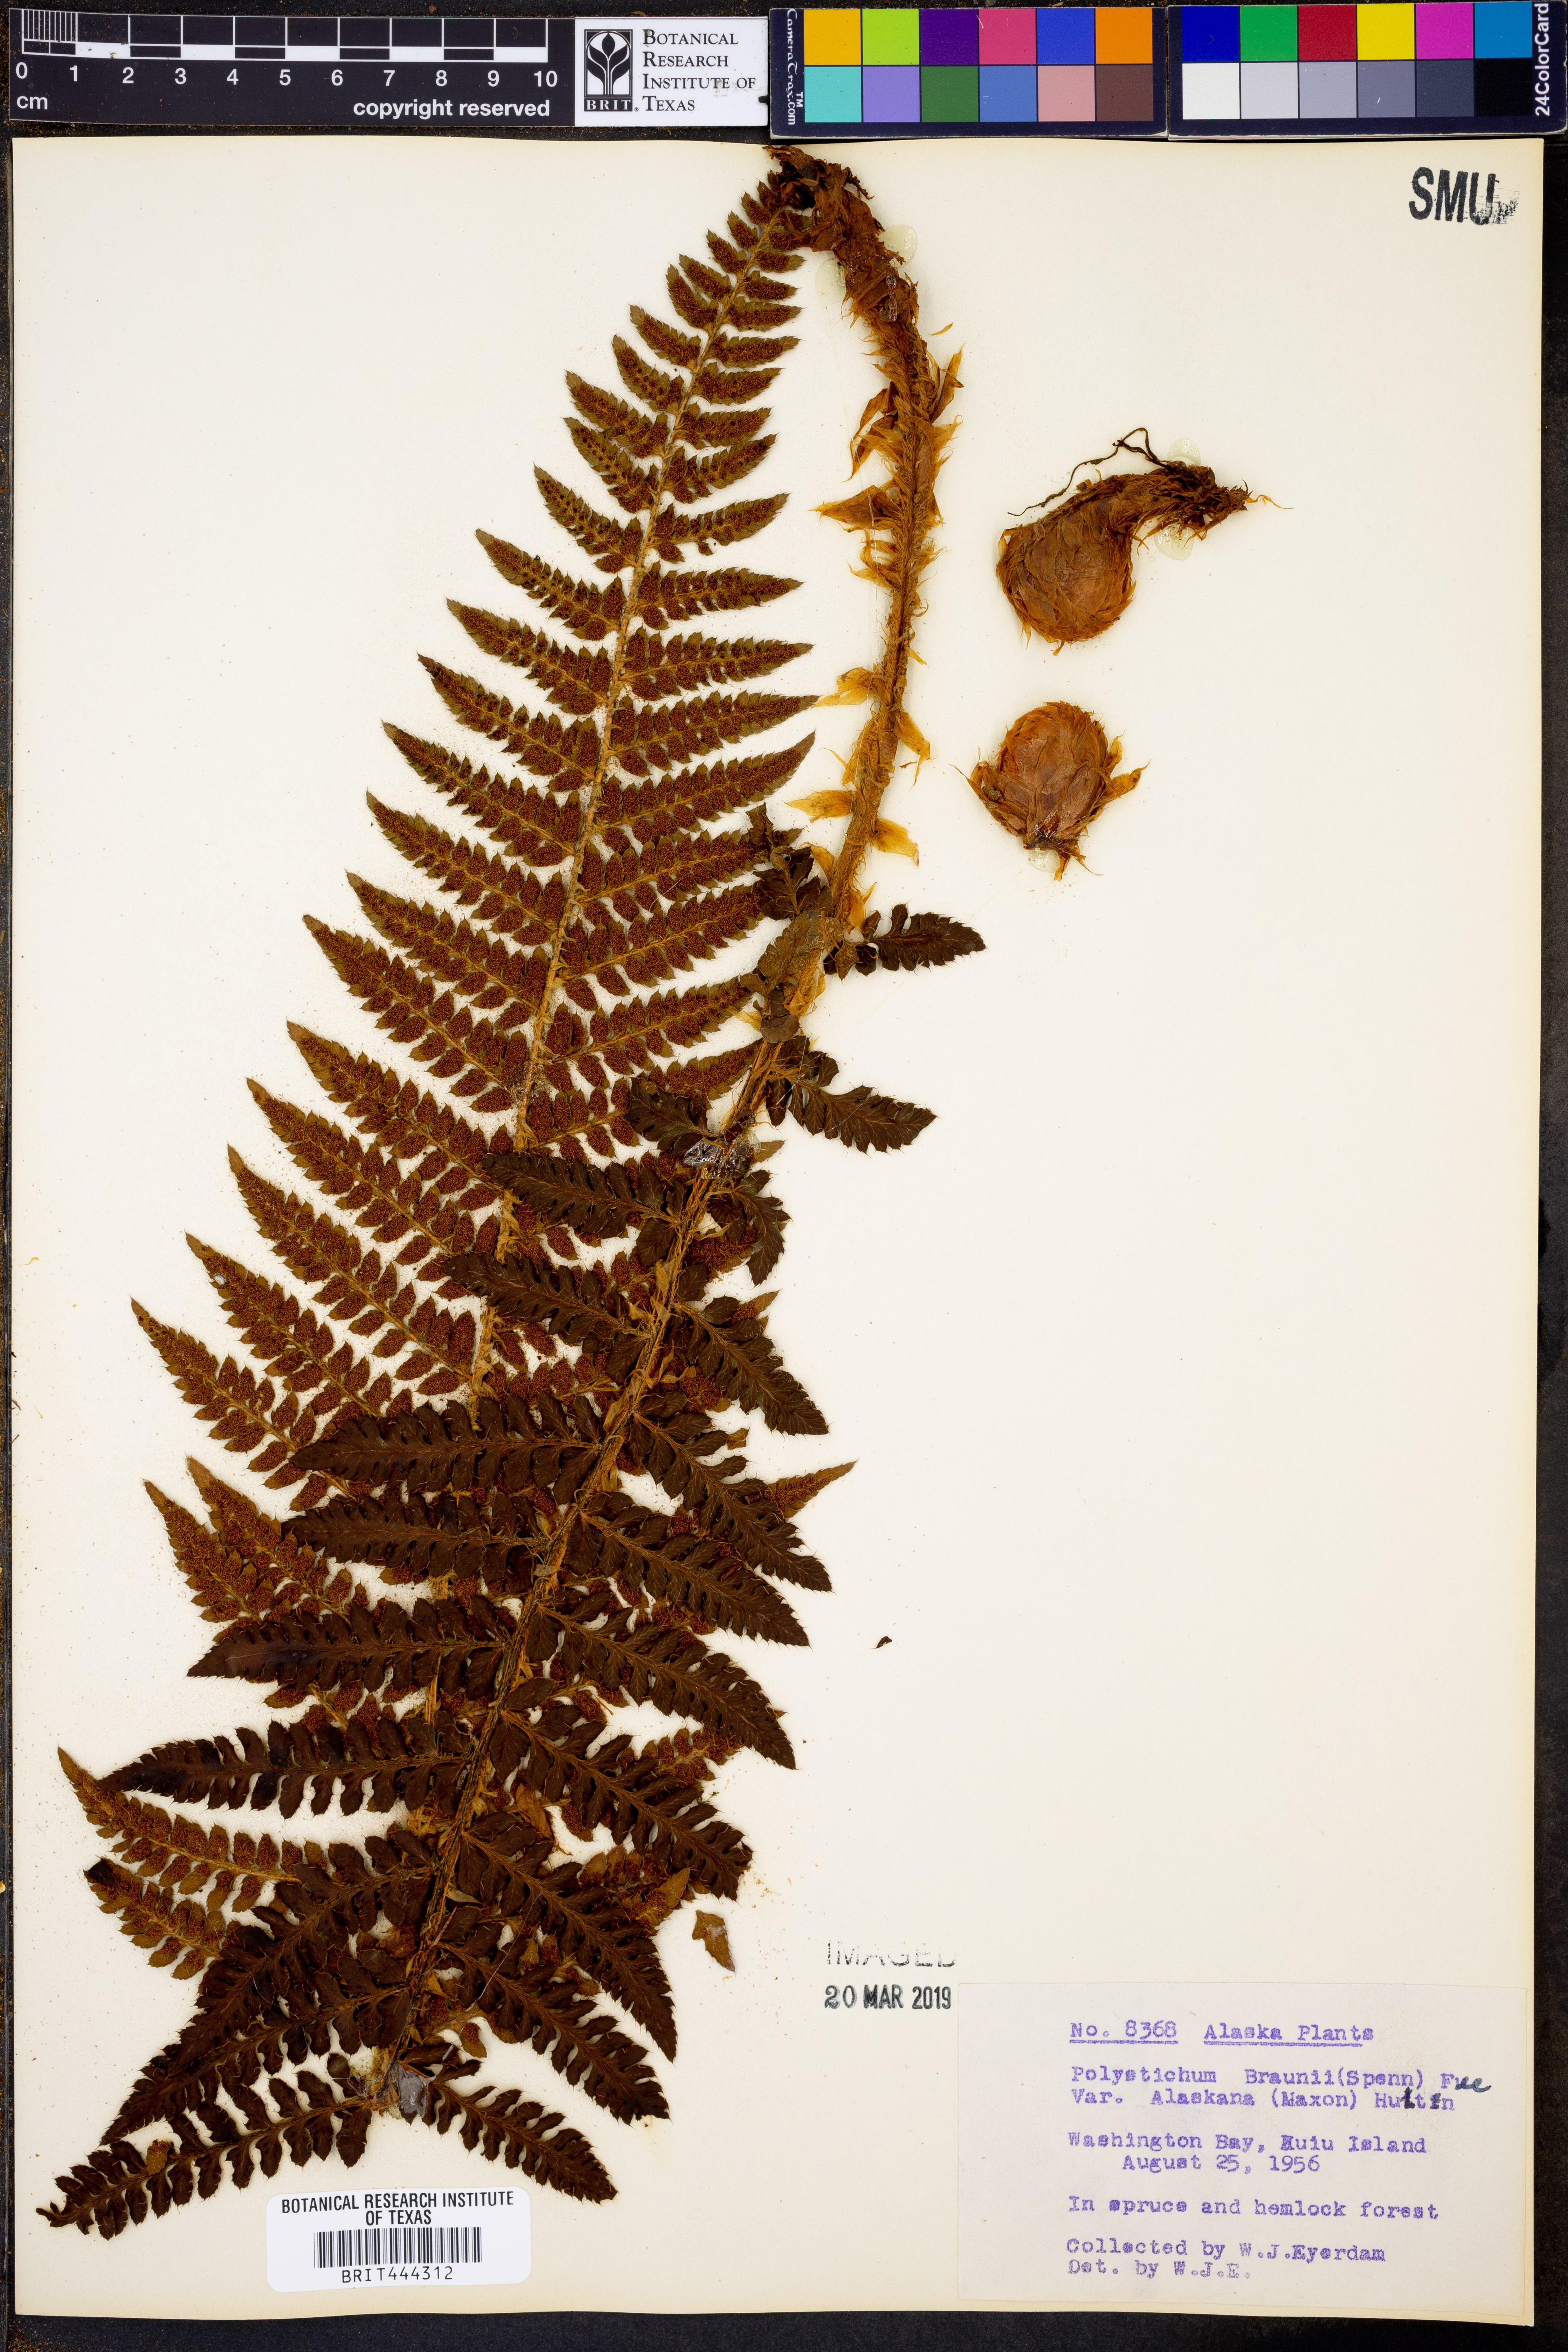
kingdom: Plantae
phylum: Tracheophyta
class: Polypodiopsida
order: Polypodiales
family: Dryopteridaceae
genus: Polystichum
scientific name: Polystichum setigerum
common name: Alaska holly fern
